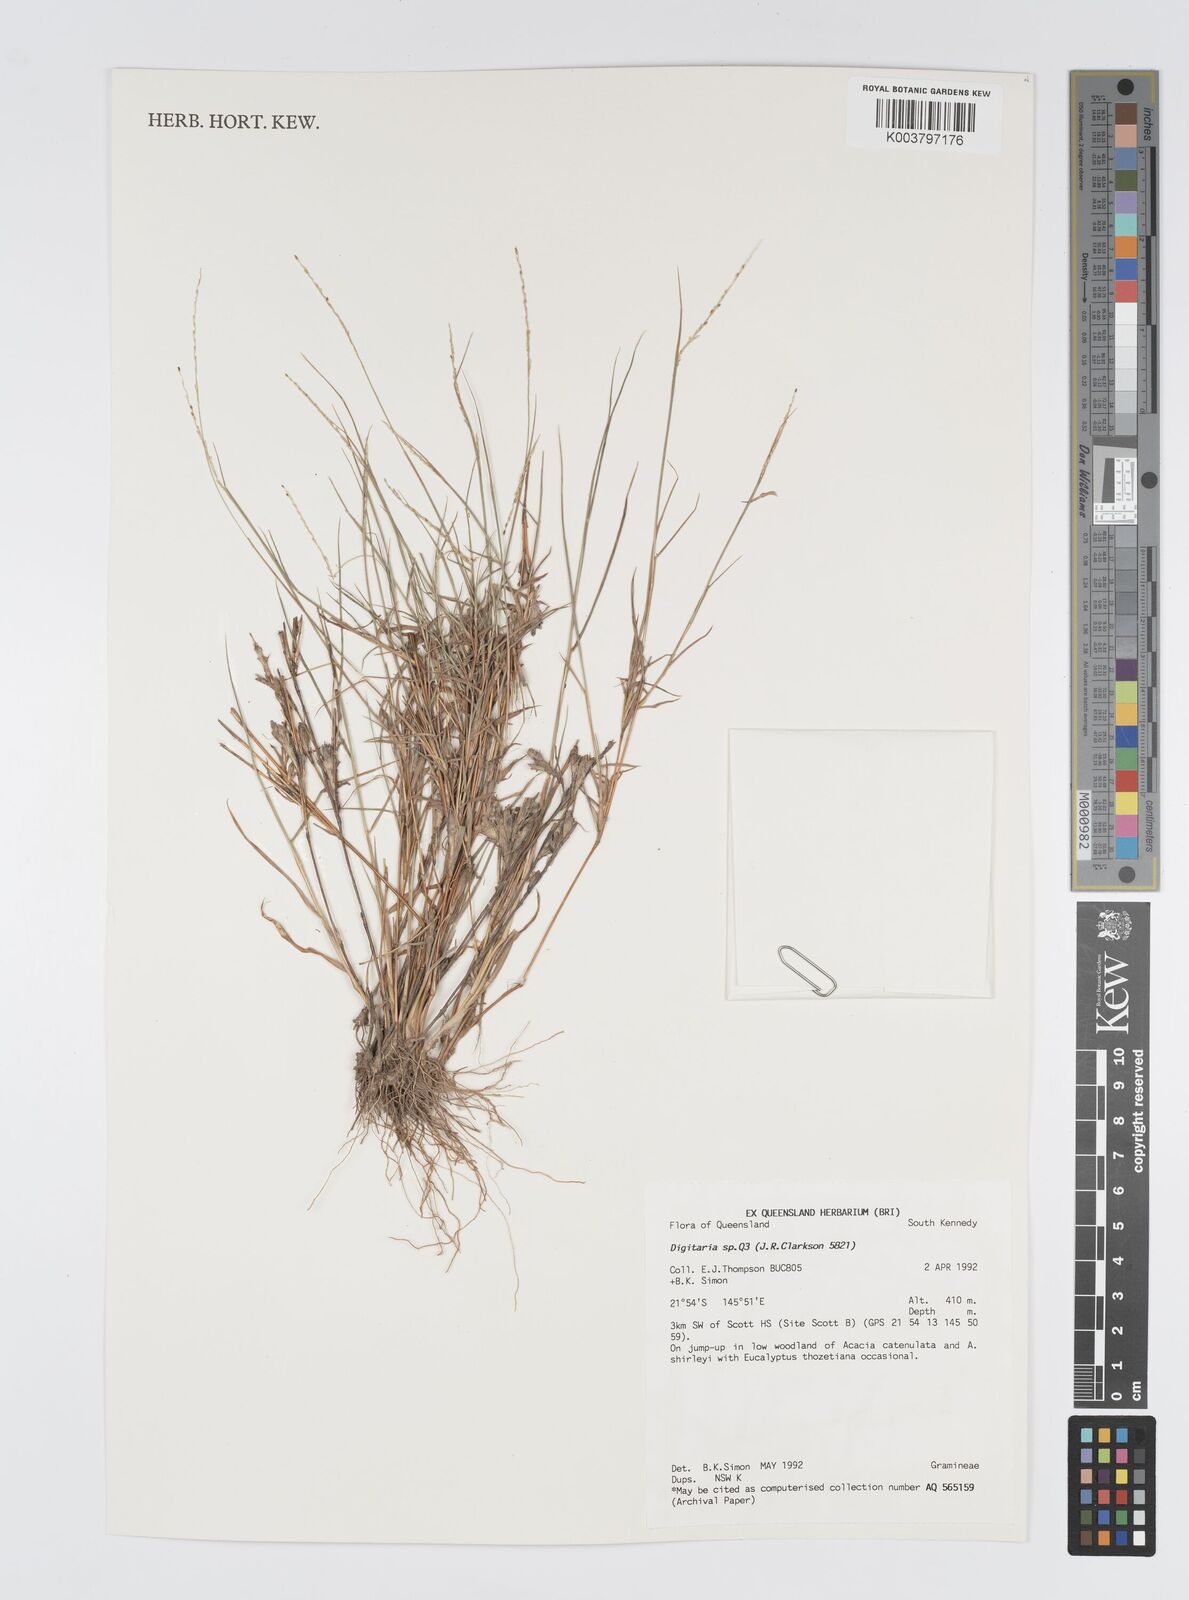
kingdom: Plantae
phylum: Tracheophyta
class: Liliopsida
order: Poales
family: Poaceae
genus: Digitaria
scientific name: Digitaria spec
